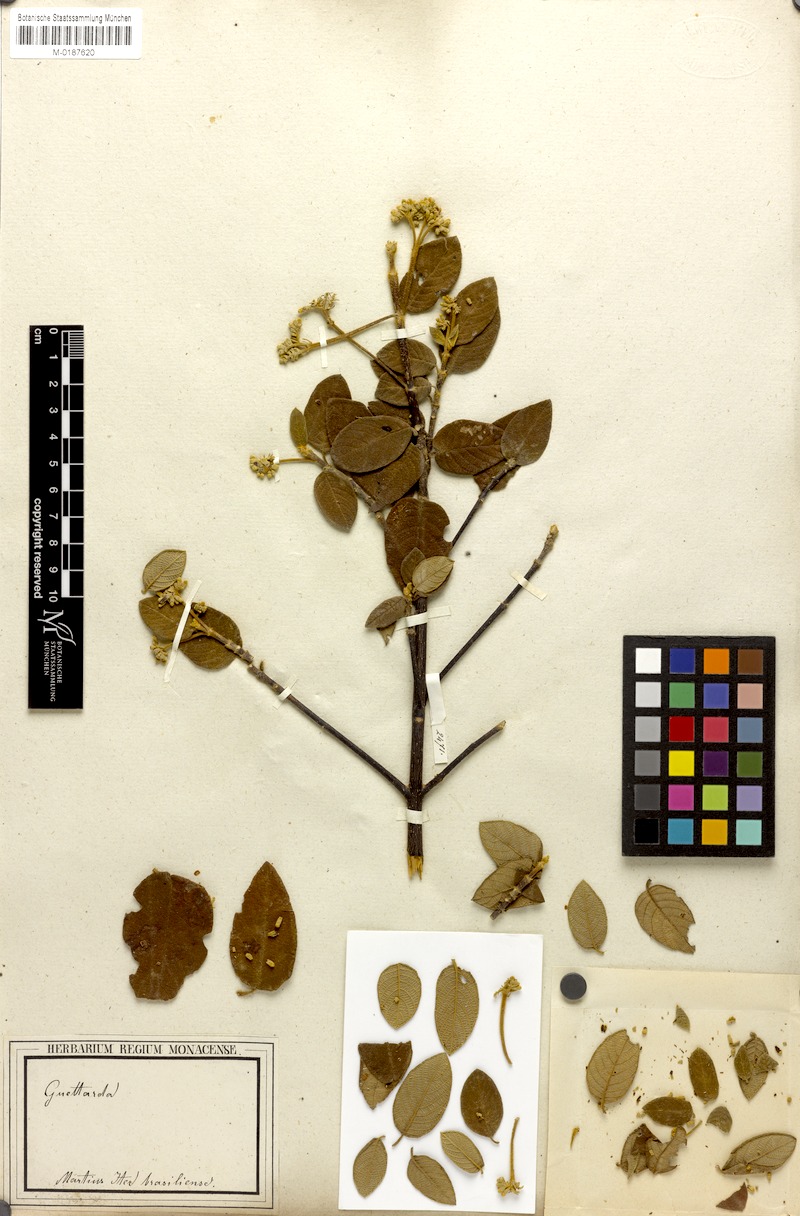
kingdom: Plantae
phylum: Tracheophyta
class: Magnoliopsida
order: Gentianales
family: Rubiaceae
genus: Guettarda
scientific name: Guettarda angelica
